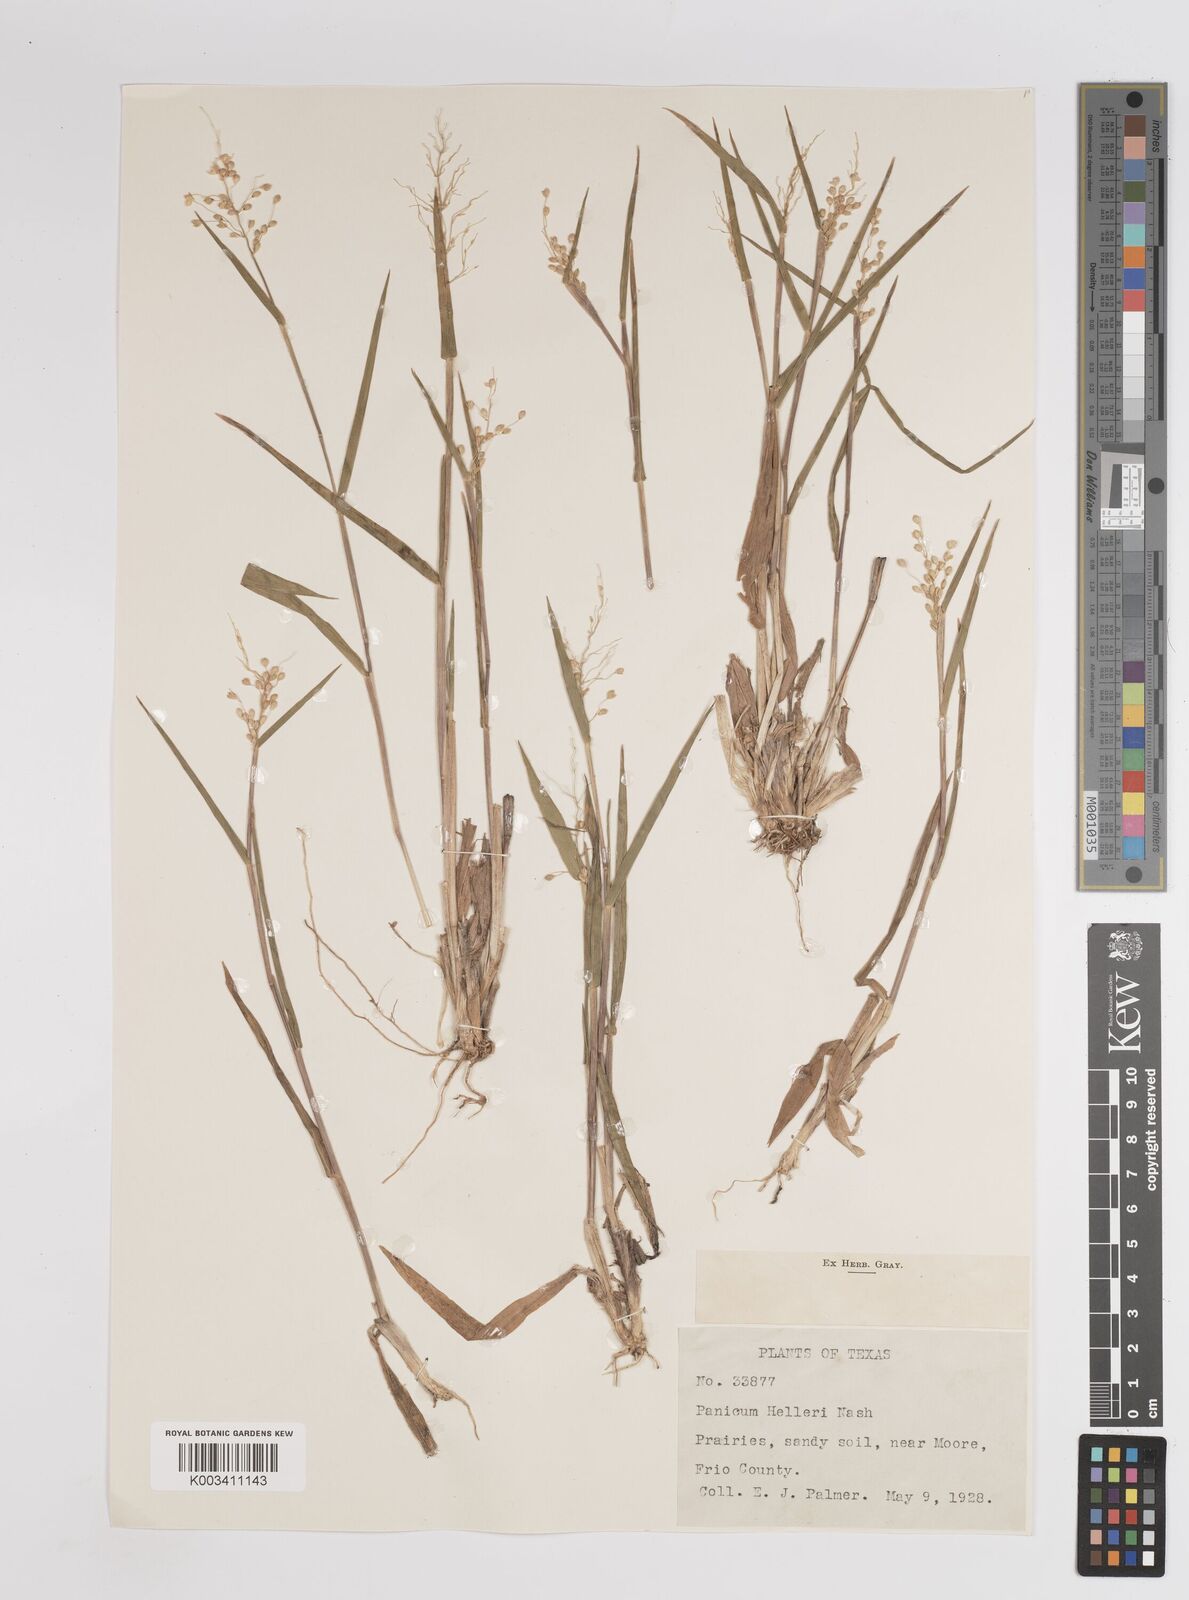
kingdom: Plantae
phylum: Tracheophyta
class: Liliopsida
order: Poales
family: Poaceae
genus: Dichanthelium
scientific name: Dichanthelium oligosanthes
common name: Few-anther obscuregrass
